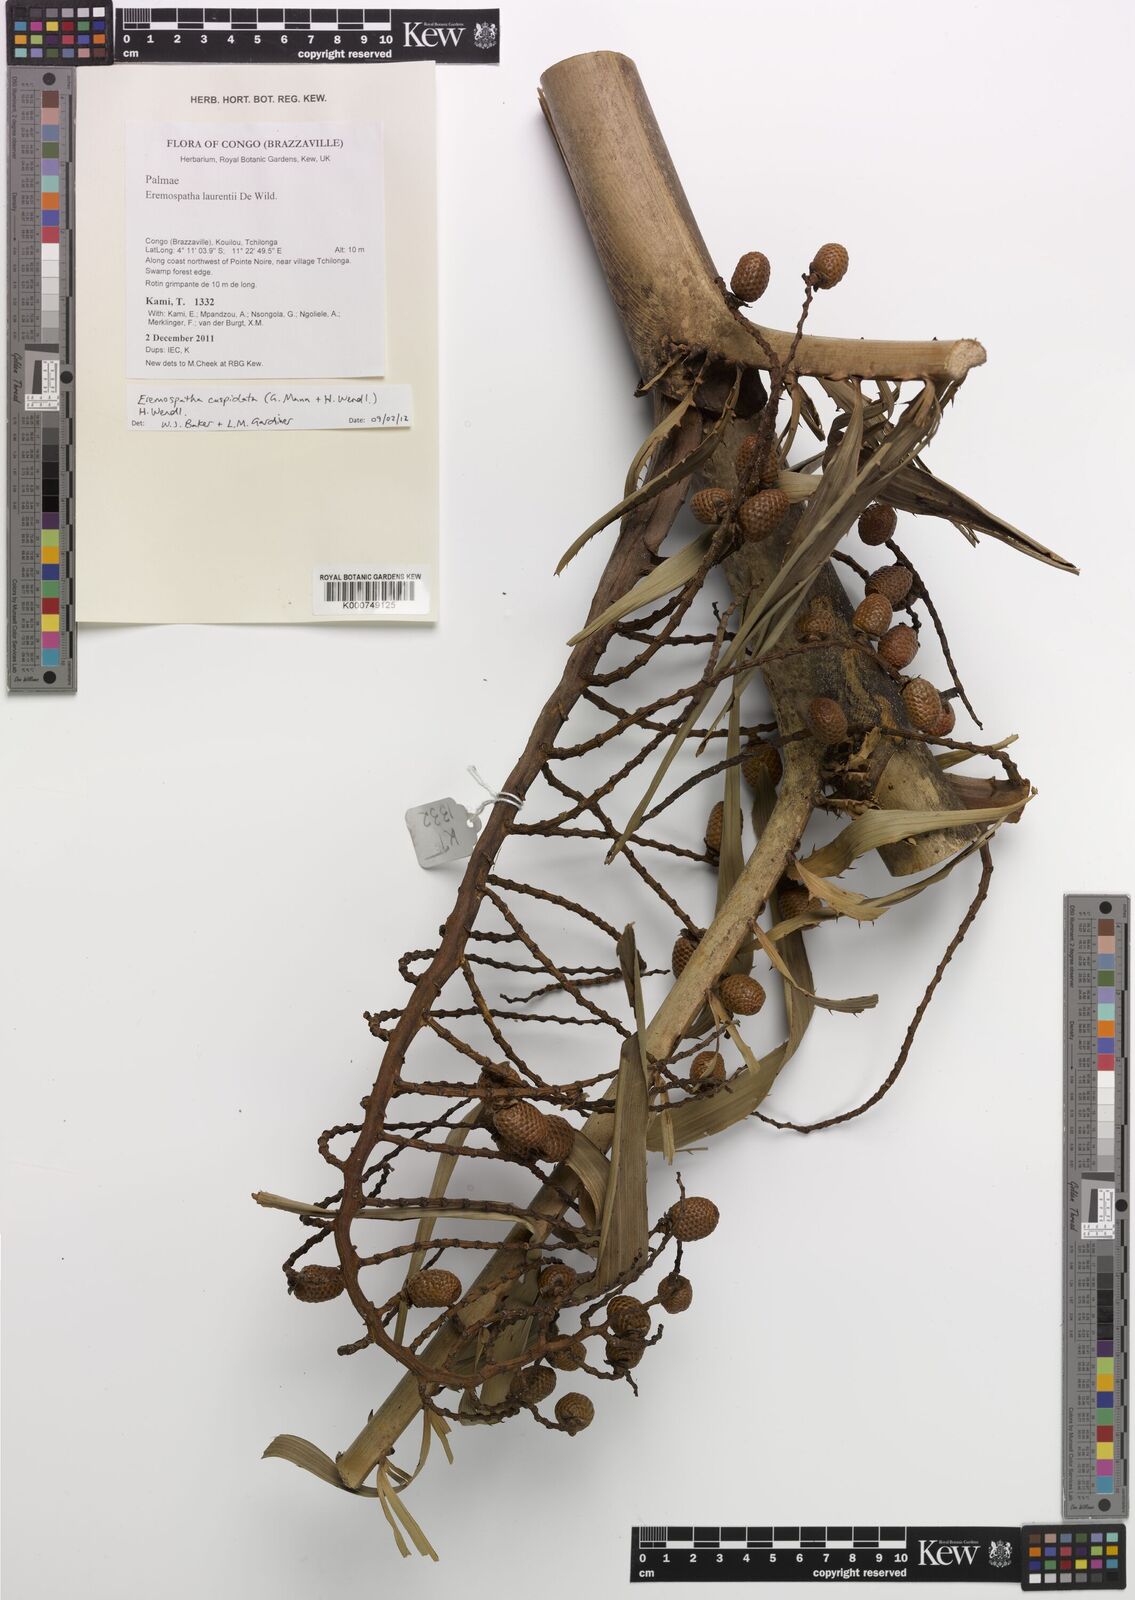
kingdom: Plantae
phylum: Tracheophyta
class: Liliopsida
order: Arecales
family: Arecaceae
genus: Eremospatha
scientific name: Eremospatha cuspidata
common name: Rattan
